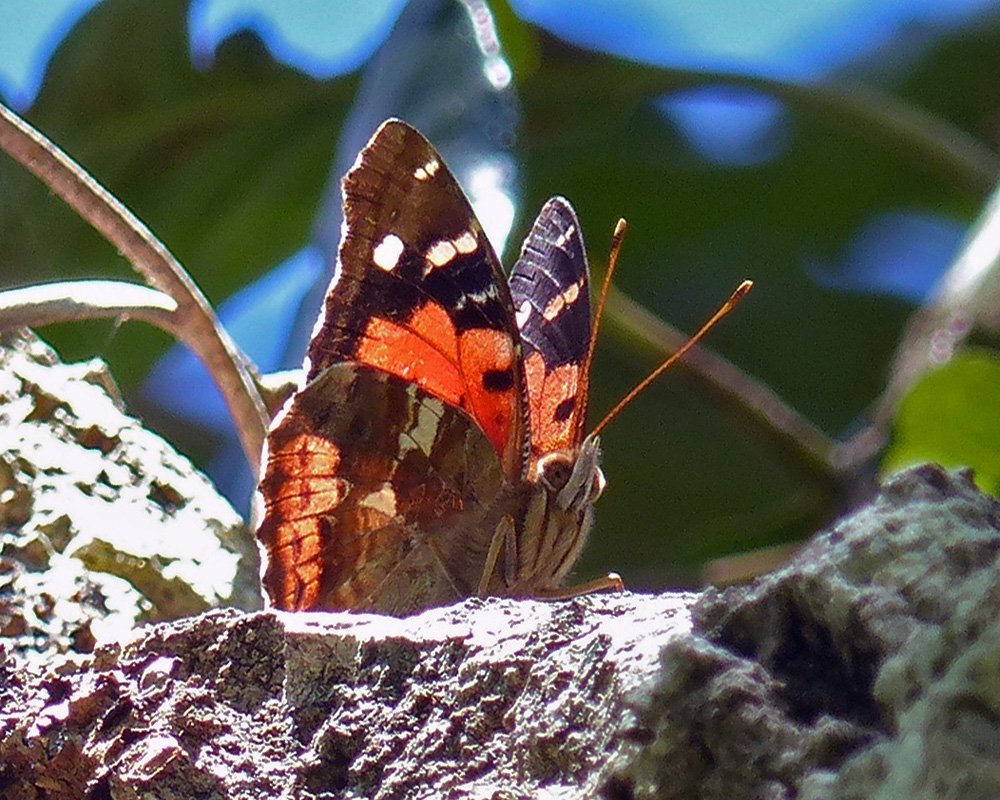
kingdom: Animalia
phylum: Arthropoda
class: Insecta
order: Lepidoptera
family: Nymphalidae
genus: Vanessa
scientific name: Vanessa tameamea
